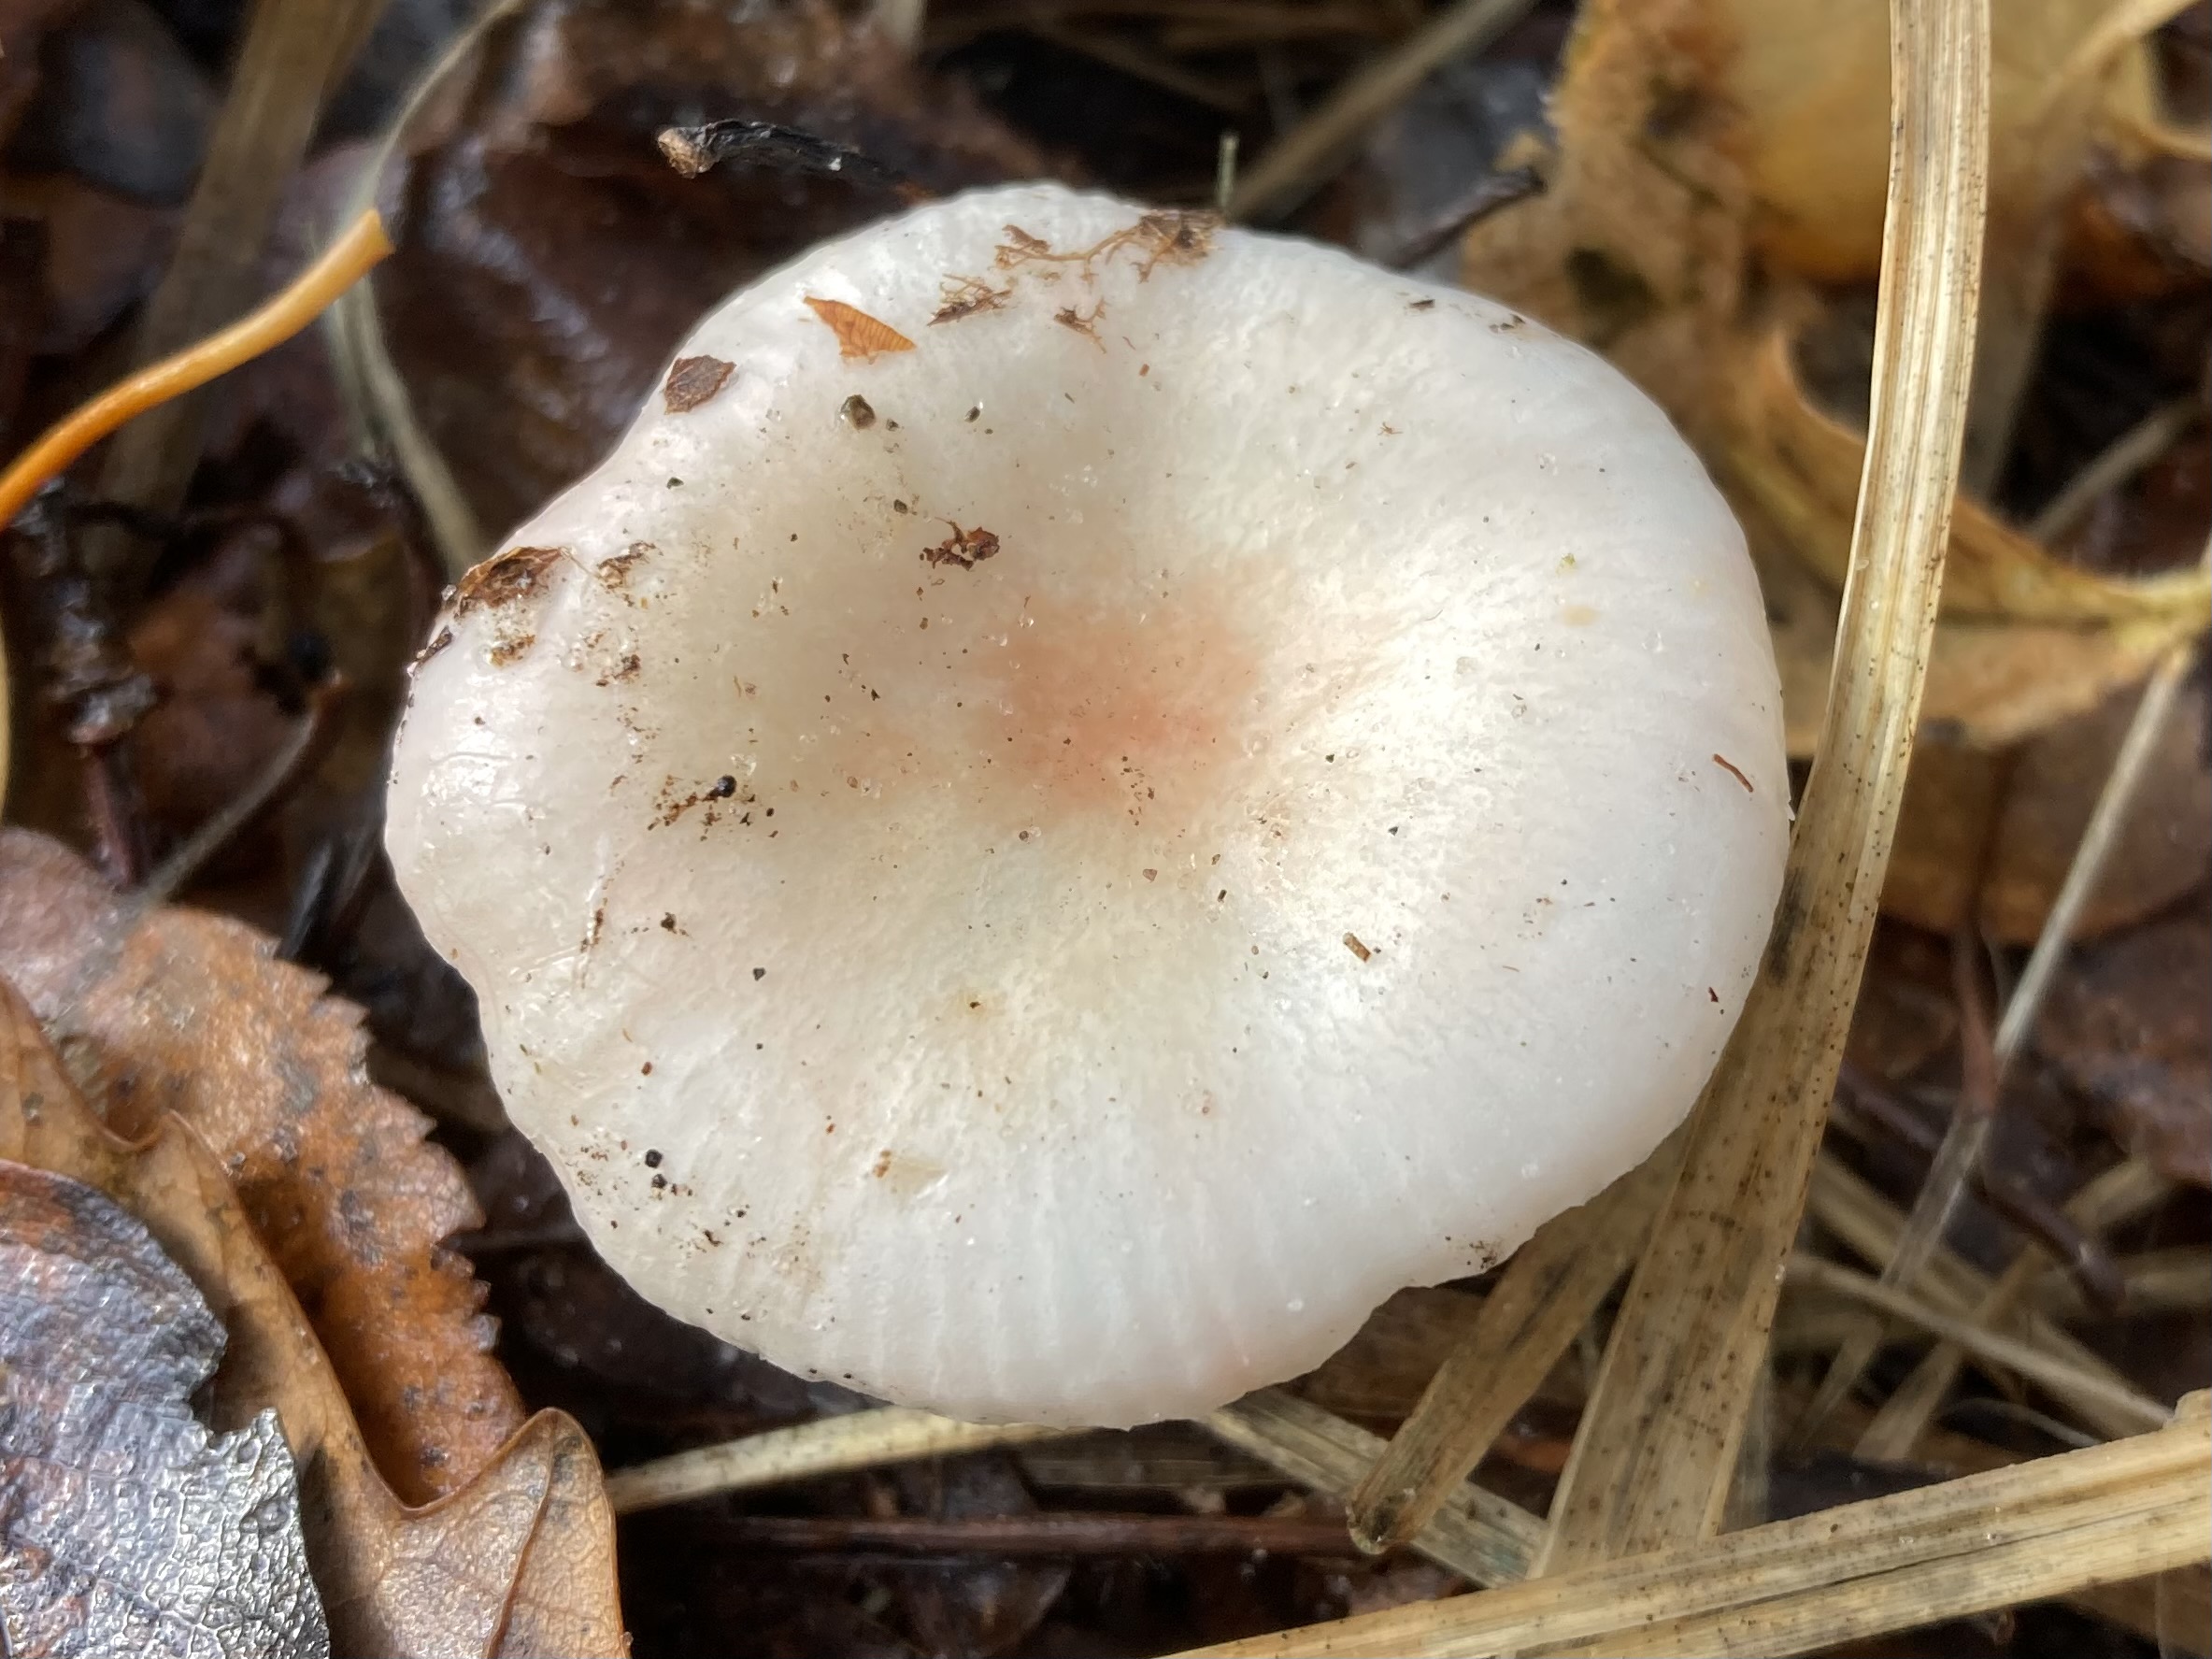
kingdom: Fungi
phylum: Basidiomycota
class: Agaricomycetes
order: Russulales
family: Russulaceae
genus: Russula
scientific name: Russula betularum
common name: bleg gift-skørhat
